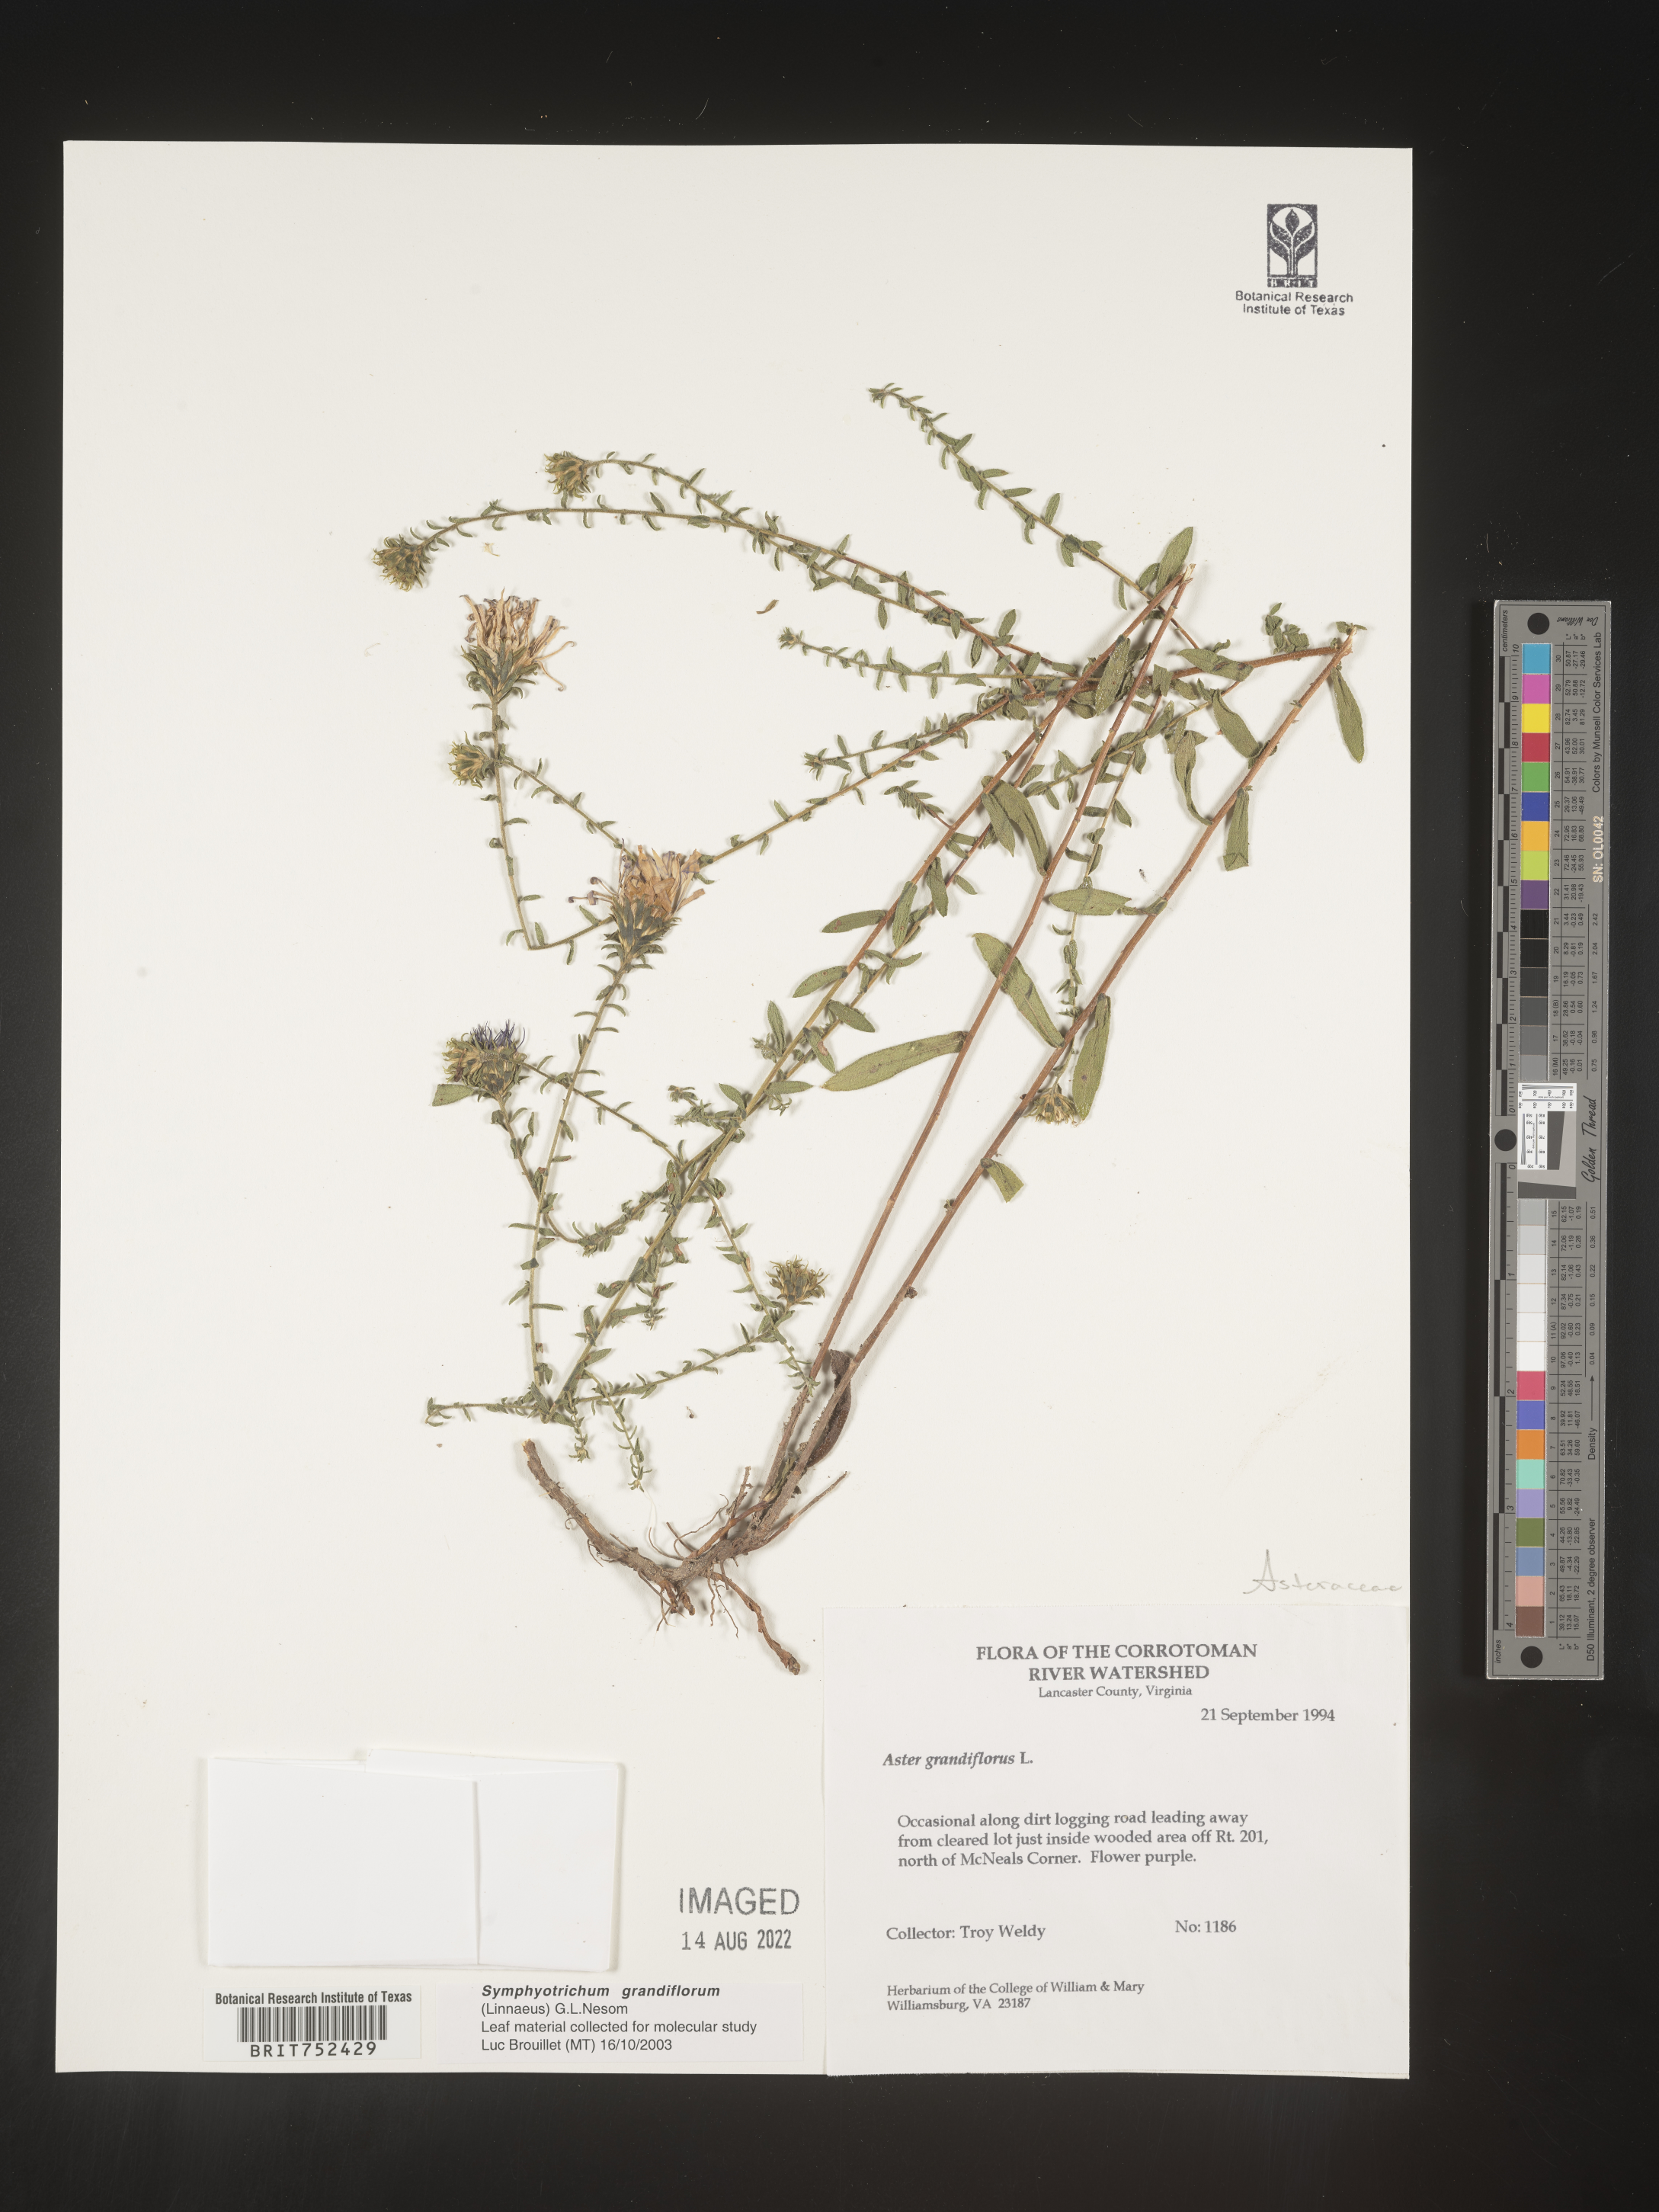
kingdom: Plantae
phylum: Tracheophyta
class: Magnoliopsida
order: Asterales
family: Asteraceae
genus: Symphyotrichum
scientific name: Symphyotrichum grandiflorum
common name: Big-head aster
